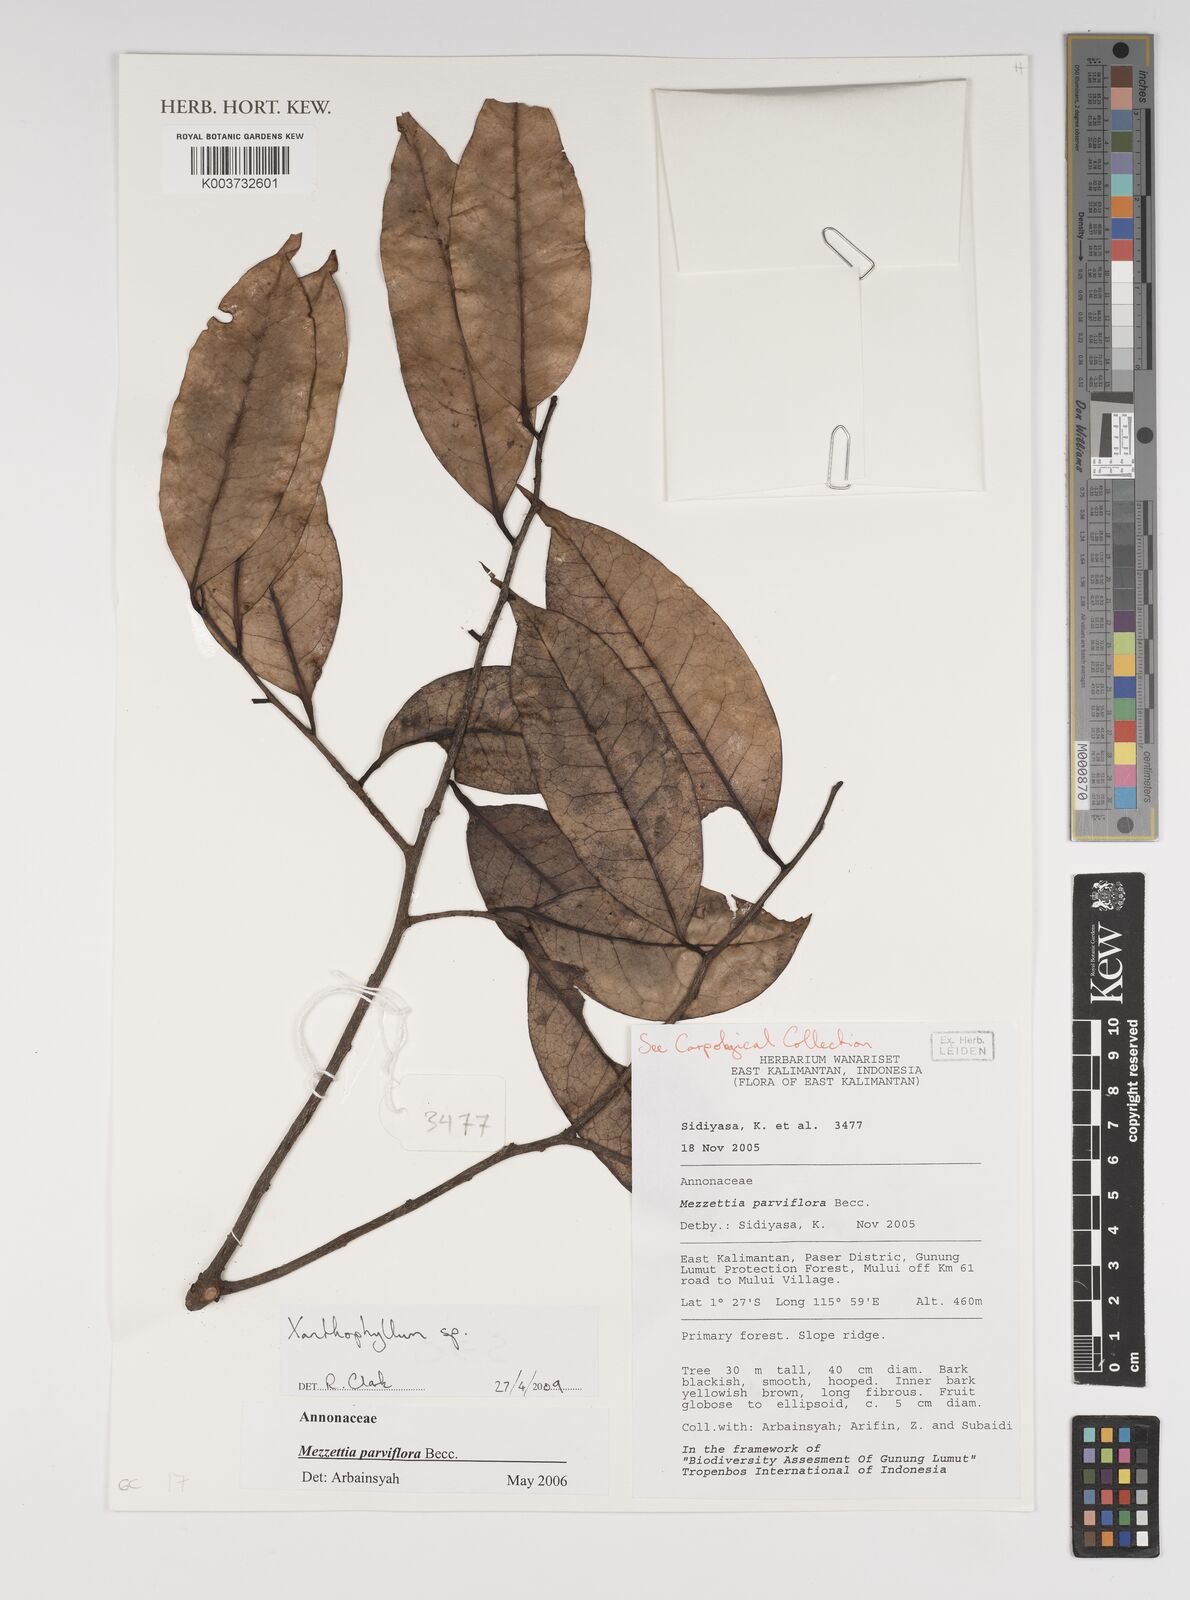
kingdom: Plantae
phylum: Tracheophyta
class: Magnoliopsida
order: Fabales
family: Polygalaceae
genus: Xanthophyllum
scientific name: Xanthophyllum
